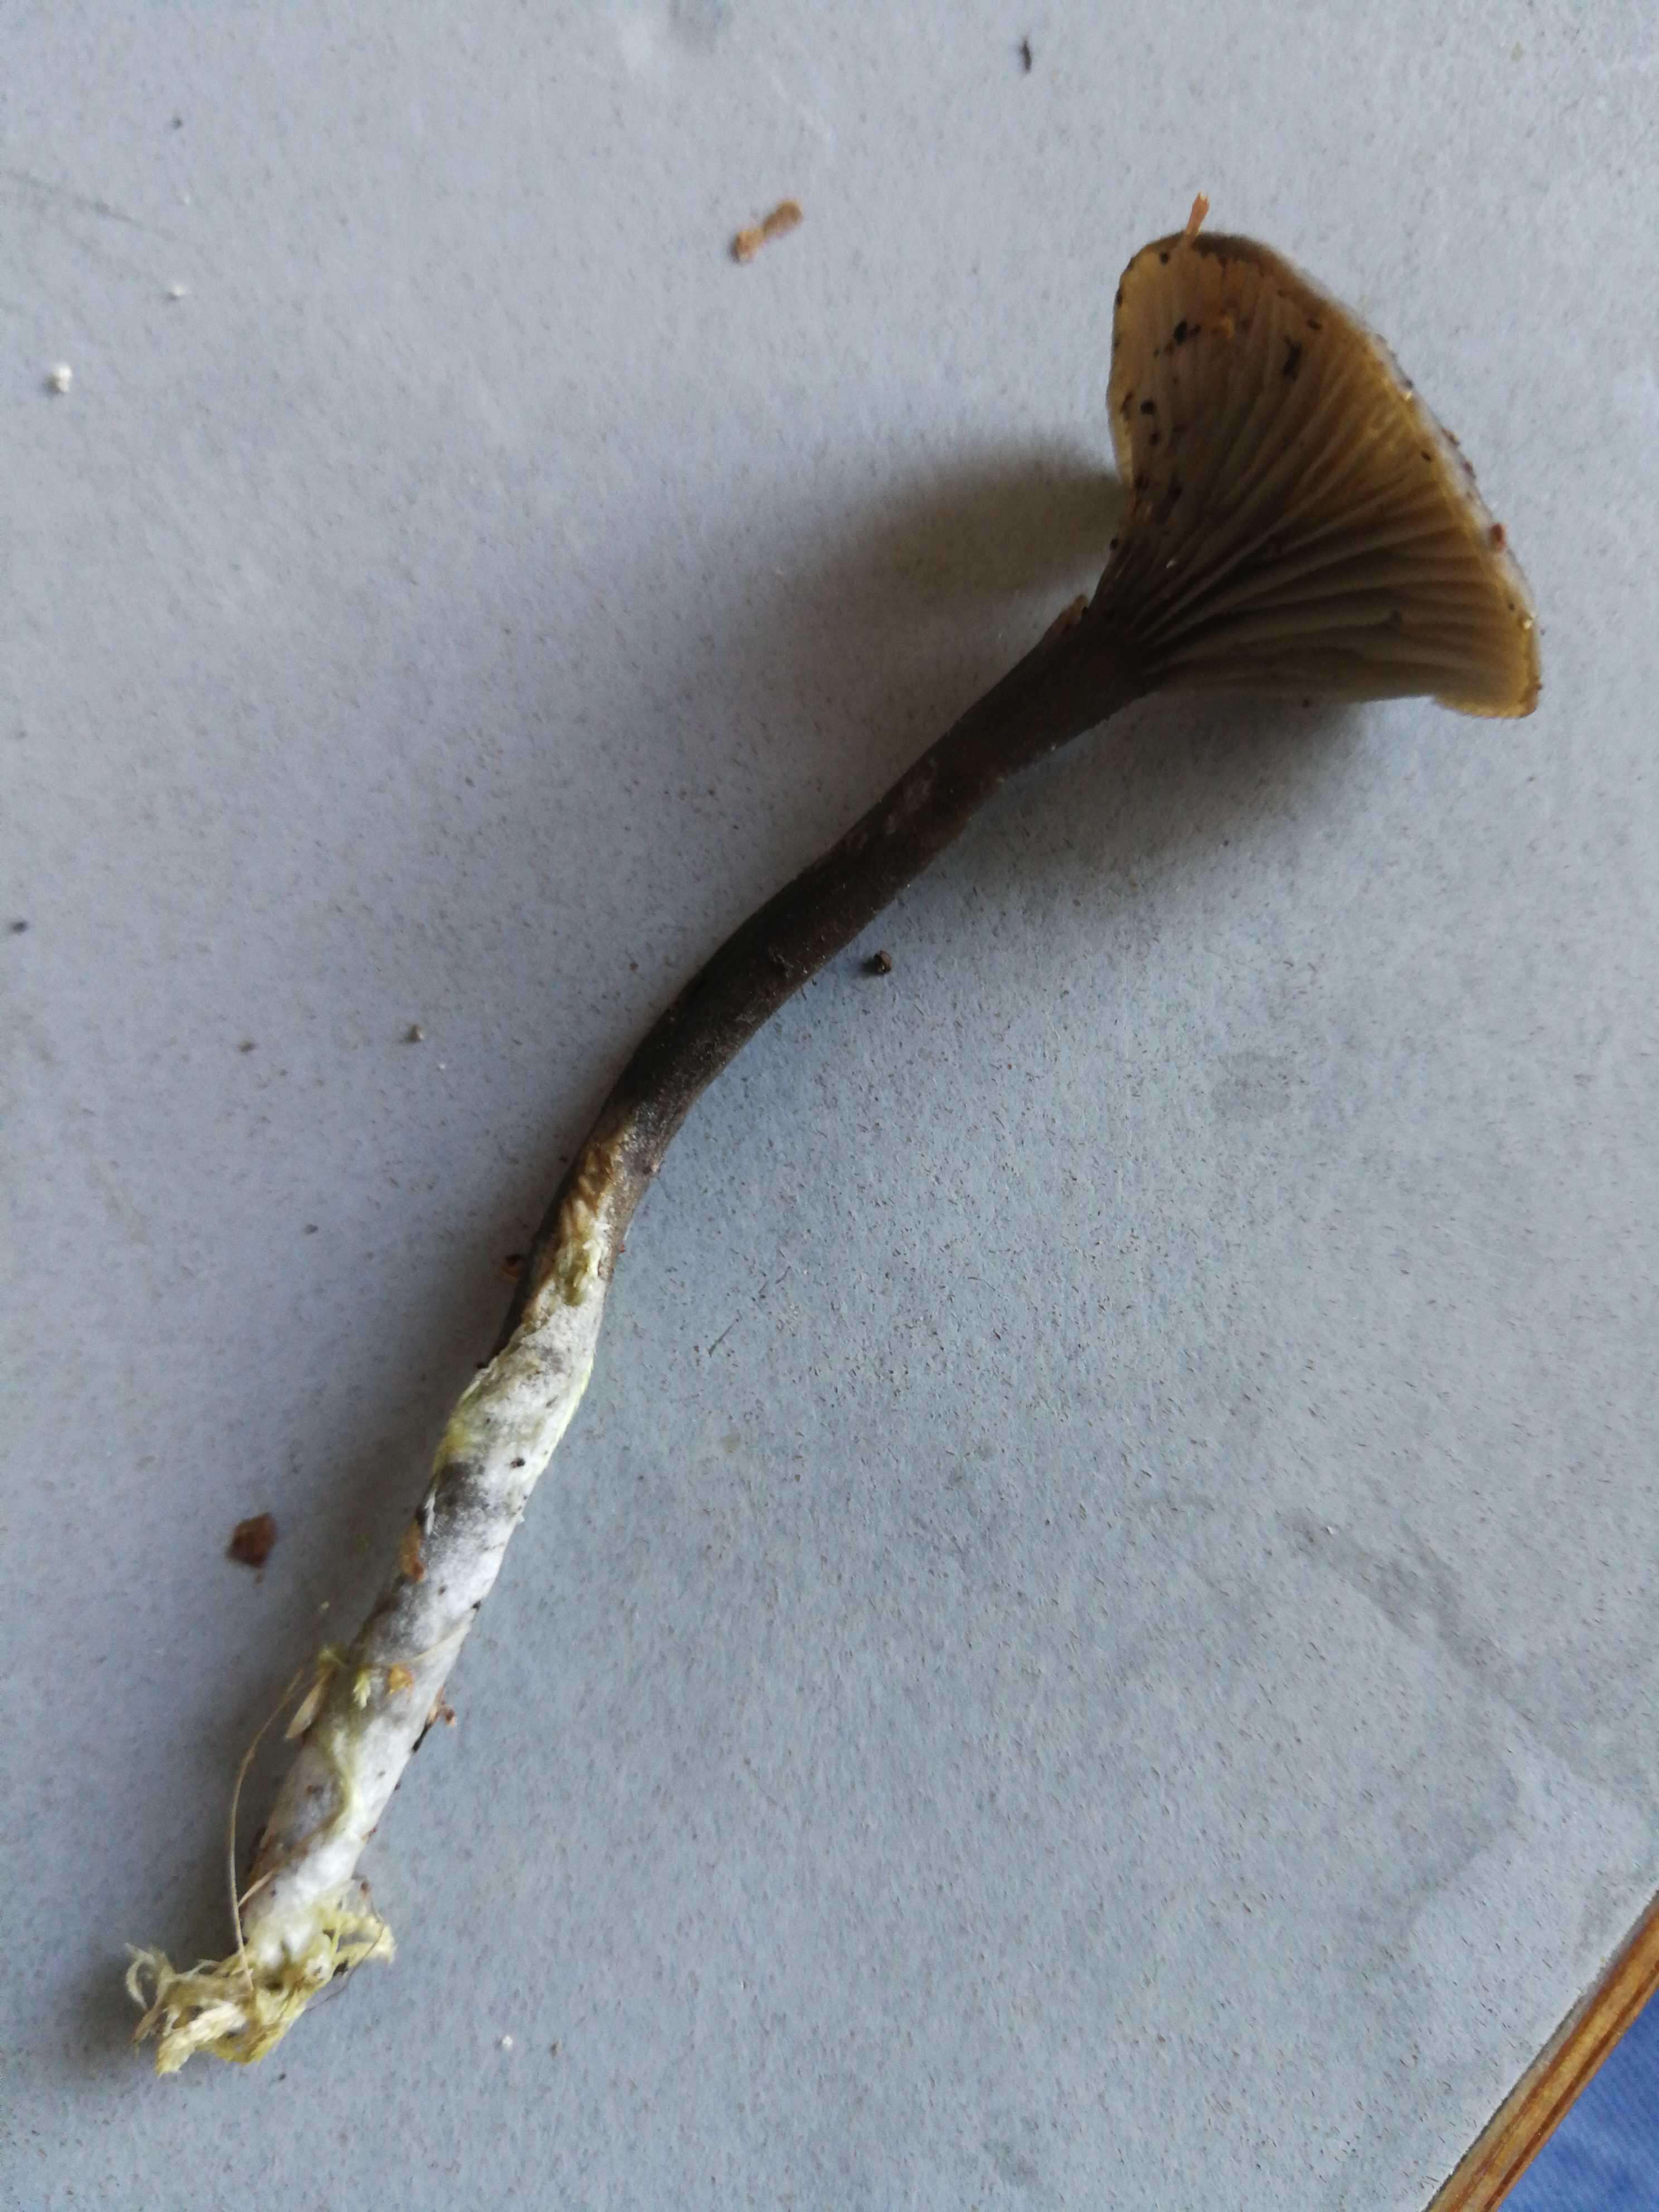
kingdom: Fungi
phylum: Basidiomycota
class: Agaricomycetes
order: Agaricales
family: Hygrophoraceae
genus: Arrhenia
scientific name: Arrhenia
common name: fontænehat
